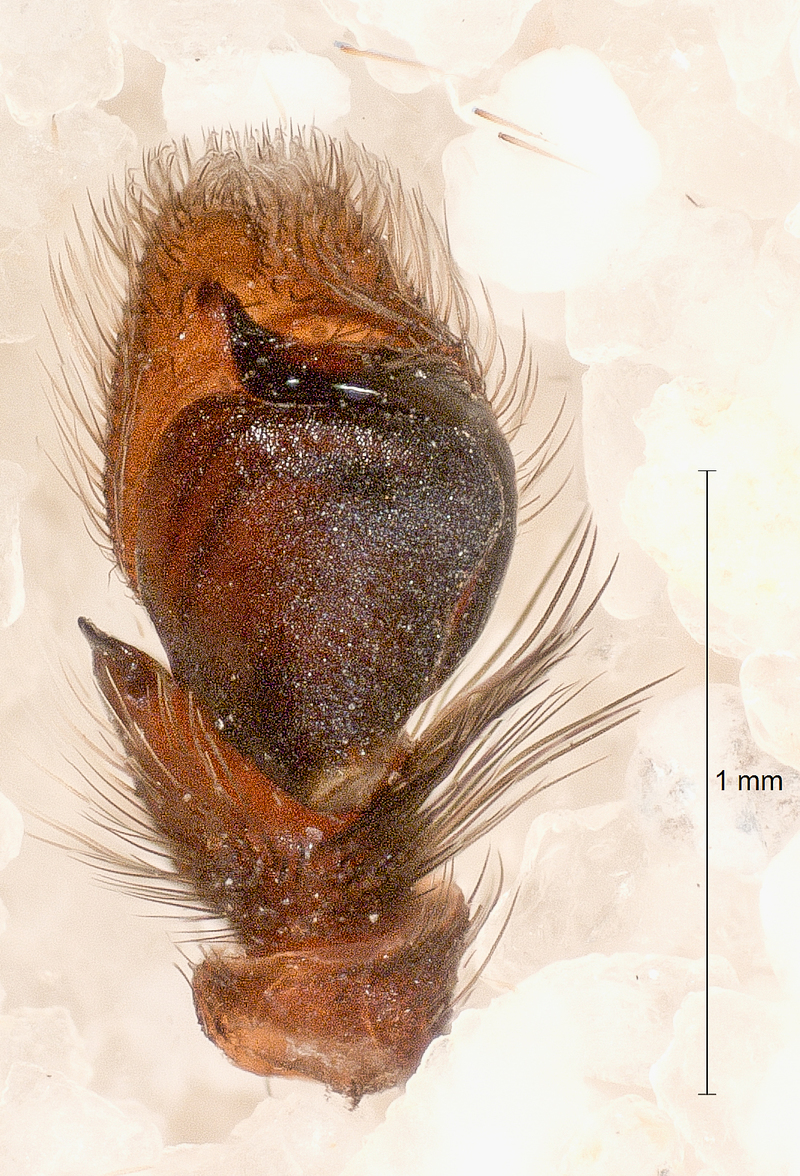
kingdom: Animalia
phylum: Arthropoda
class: Arachnida
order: Araneae
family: Salticidae
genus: Evarcha
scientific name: Evarcha arcuata
